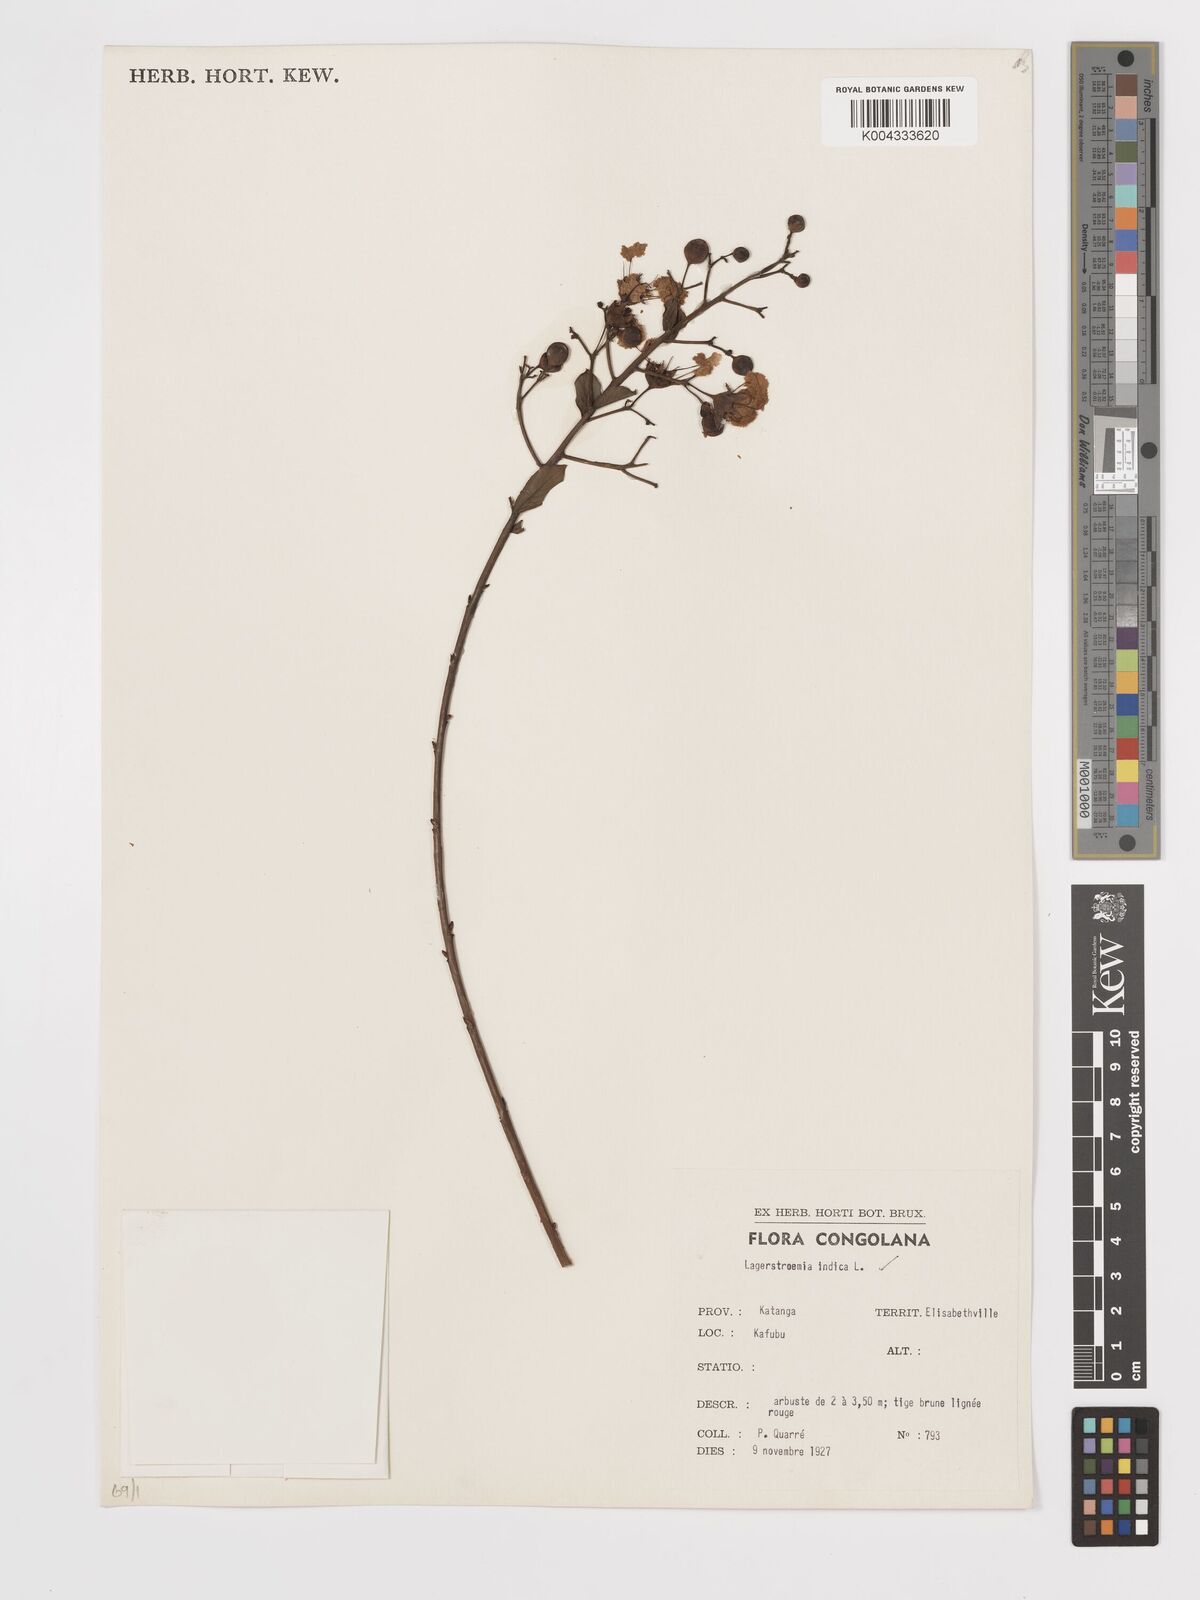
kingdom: Plantae
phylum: Tracheophyta
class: Magnoliopsida
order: Myrtales
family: Lythraceae
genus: Lagerstroemia
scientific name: Lagerstroemia indica
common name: Crape-myrtle
